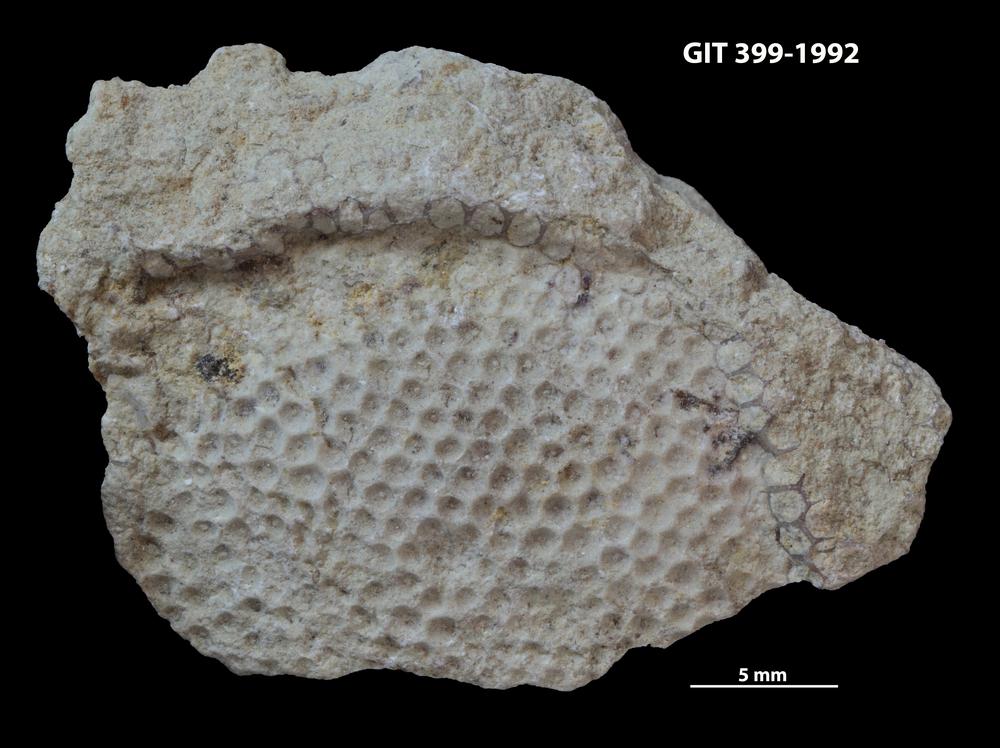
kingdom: Plantae
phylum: Chlorophyta
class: Ulvophyceae
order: Cyclocrinales
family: Cyclocrinaceae
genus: Mastopora
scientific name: Mastopora concava
